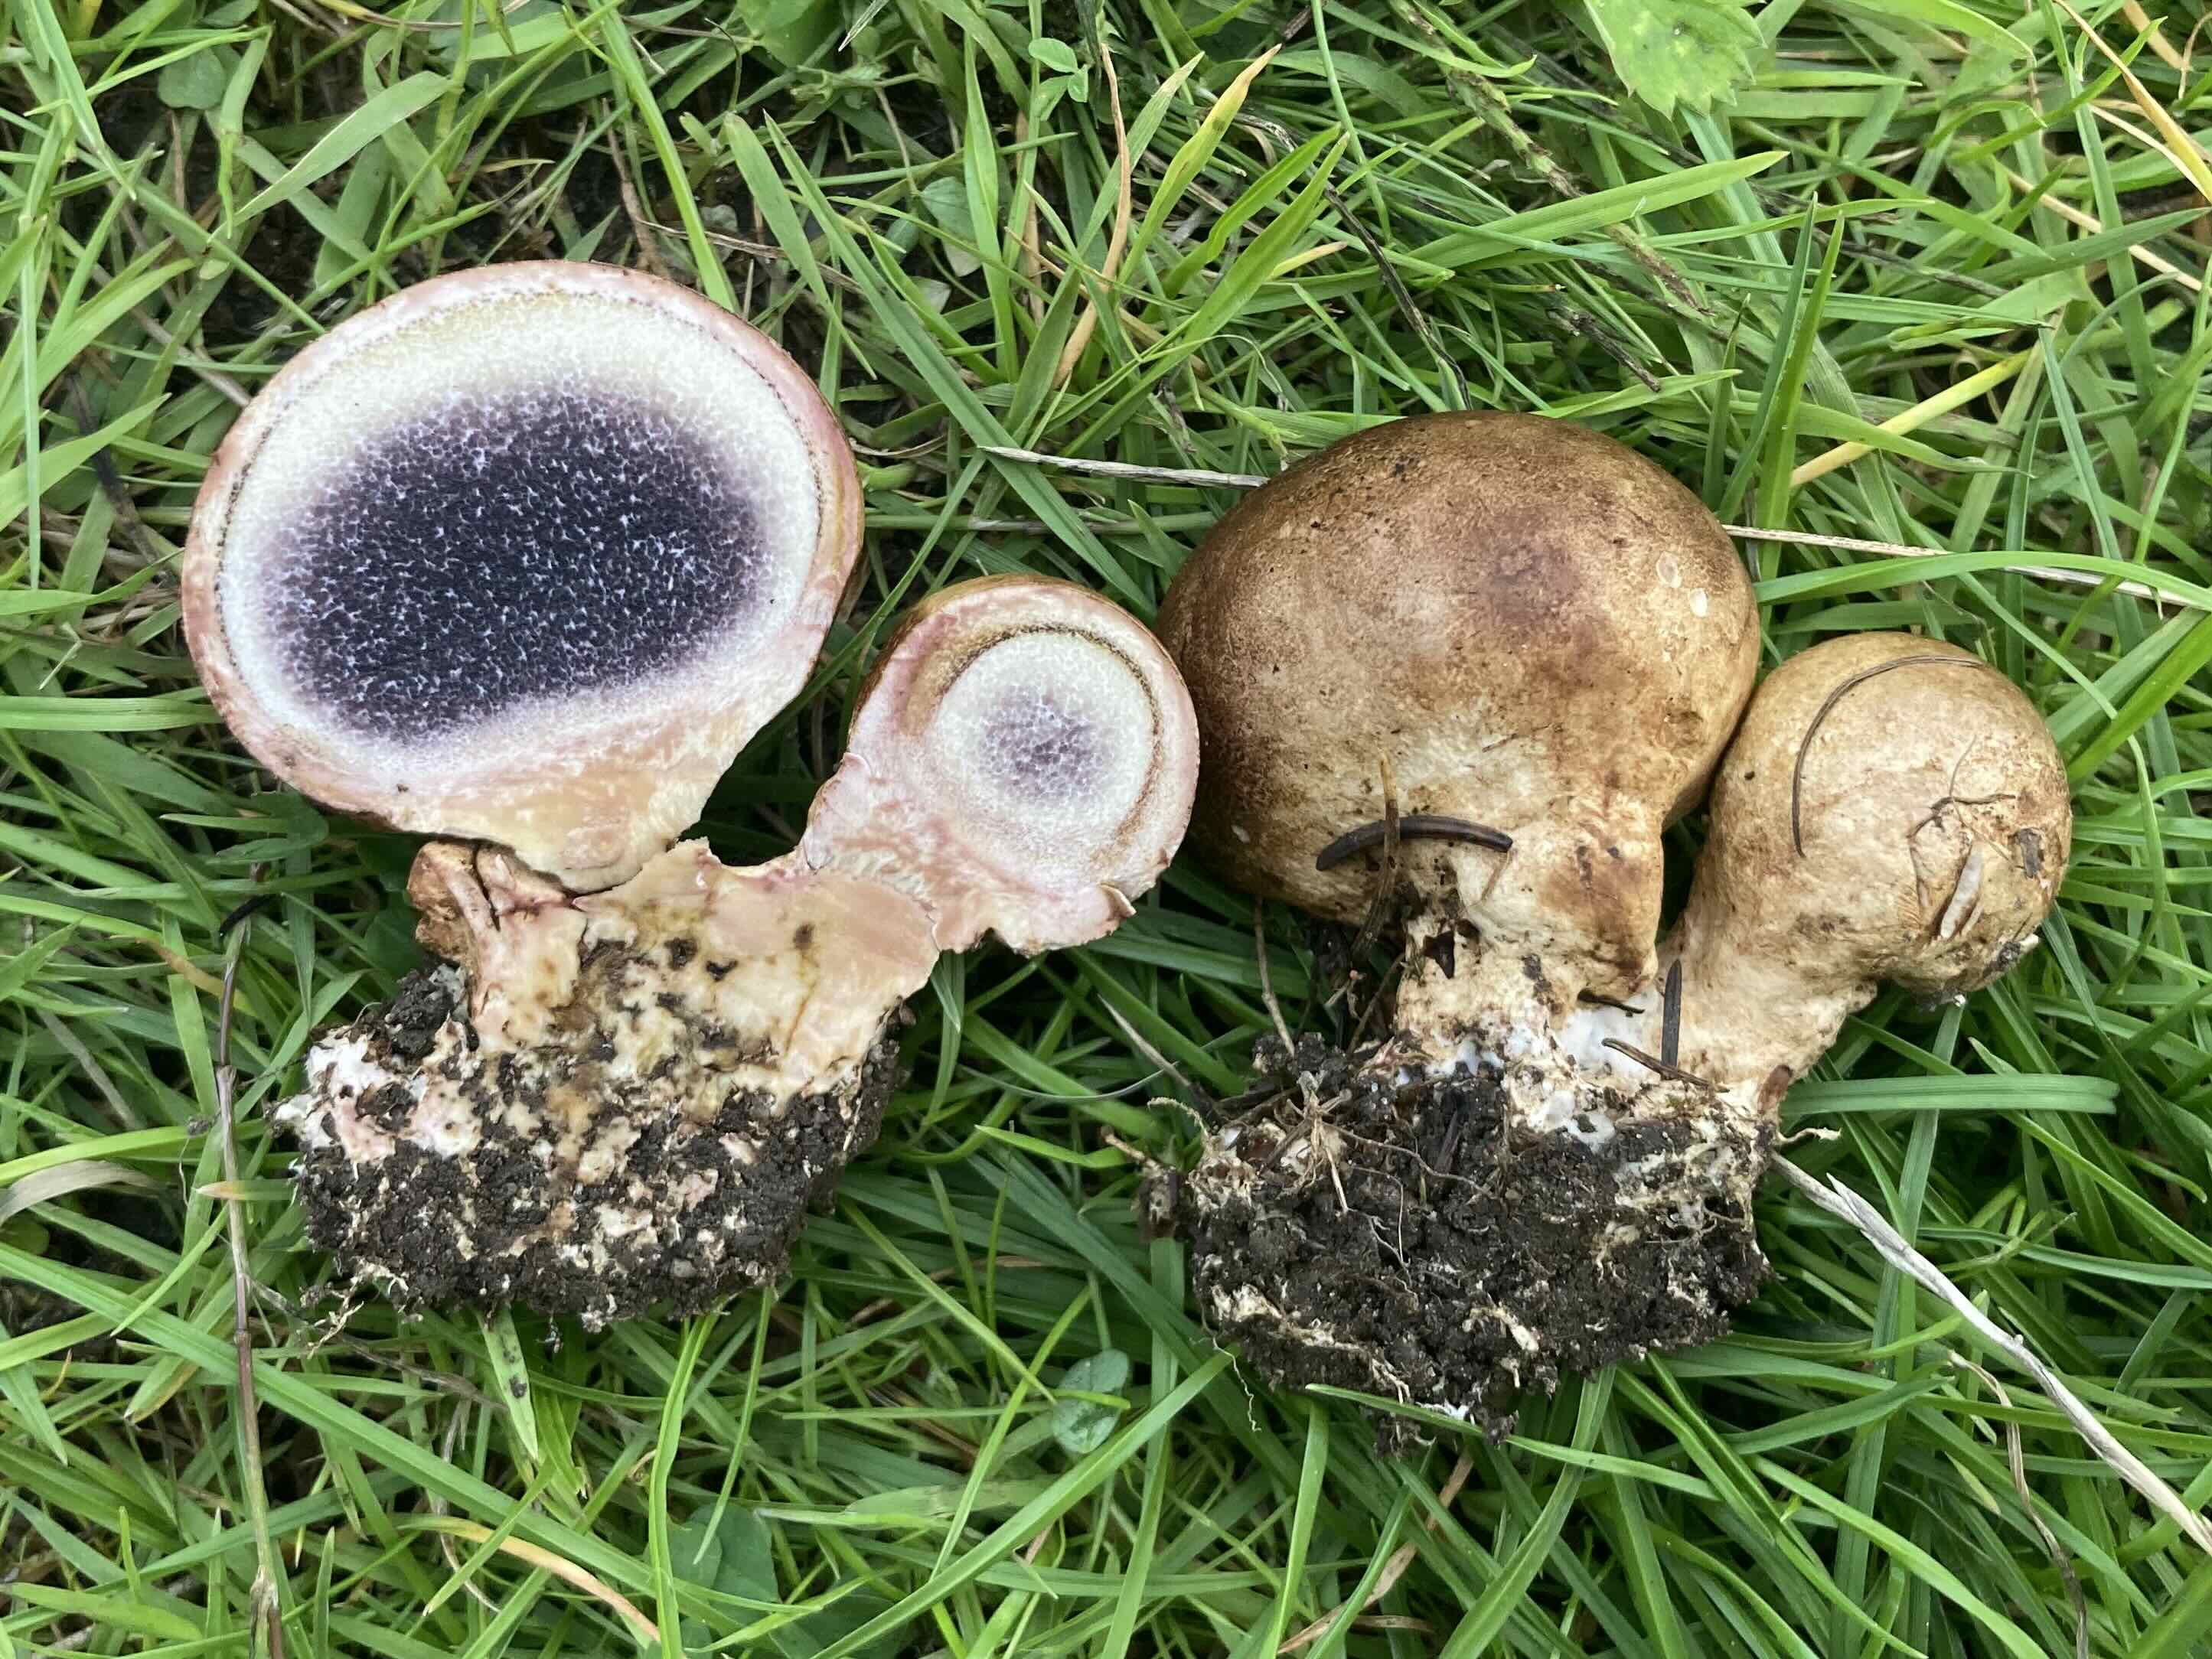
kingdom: Fungi
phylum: Basidiomycota
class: Agaricomycetes
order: Boletales
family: Sclerodermataceae
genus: Scleroderma
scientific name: Scleroderma verrucosum
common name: stilket bruskbold
